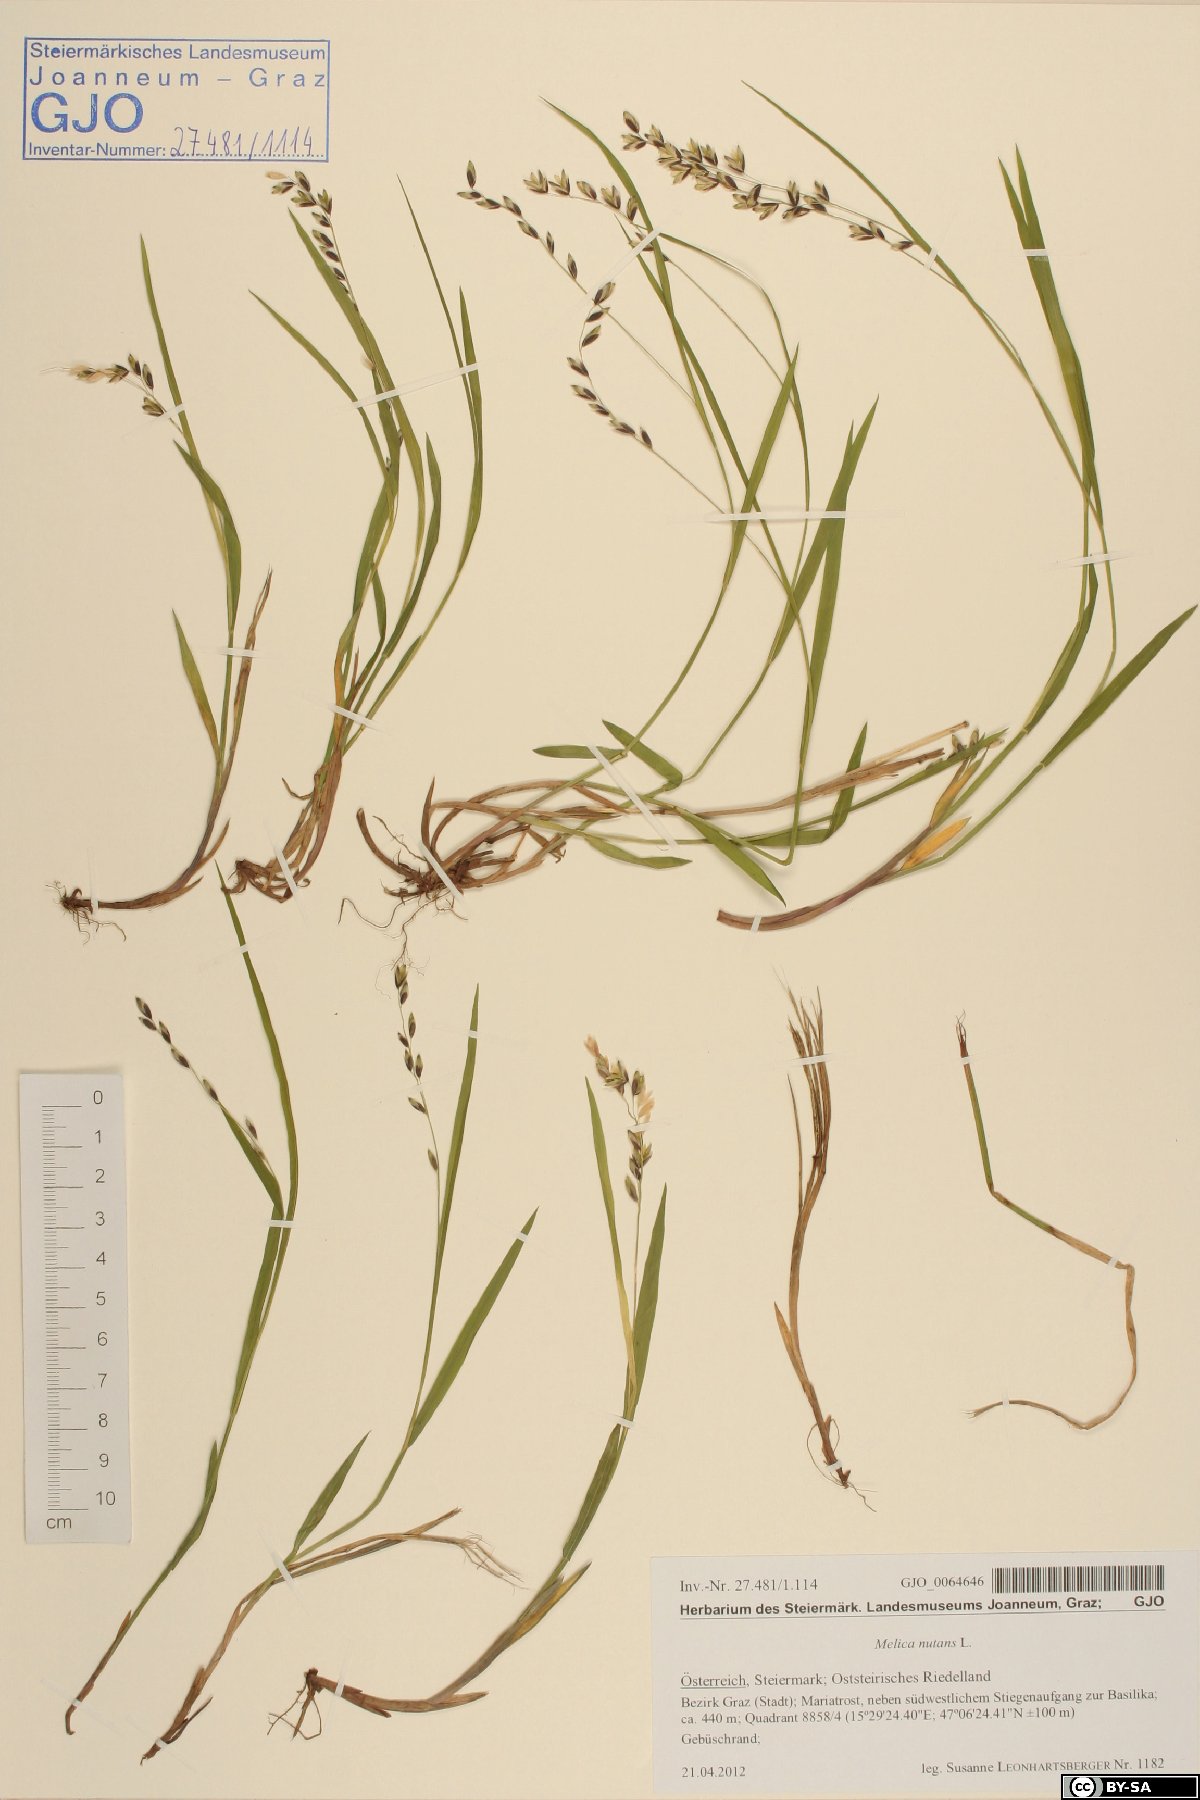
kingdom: Plantae
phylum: Tracheophyta
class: Liliopsida
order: Poales
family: Poaceae
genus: Melica
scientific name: Melica nutans
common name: Mountain melick
